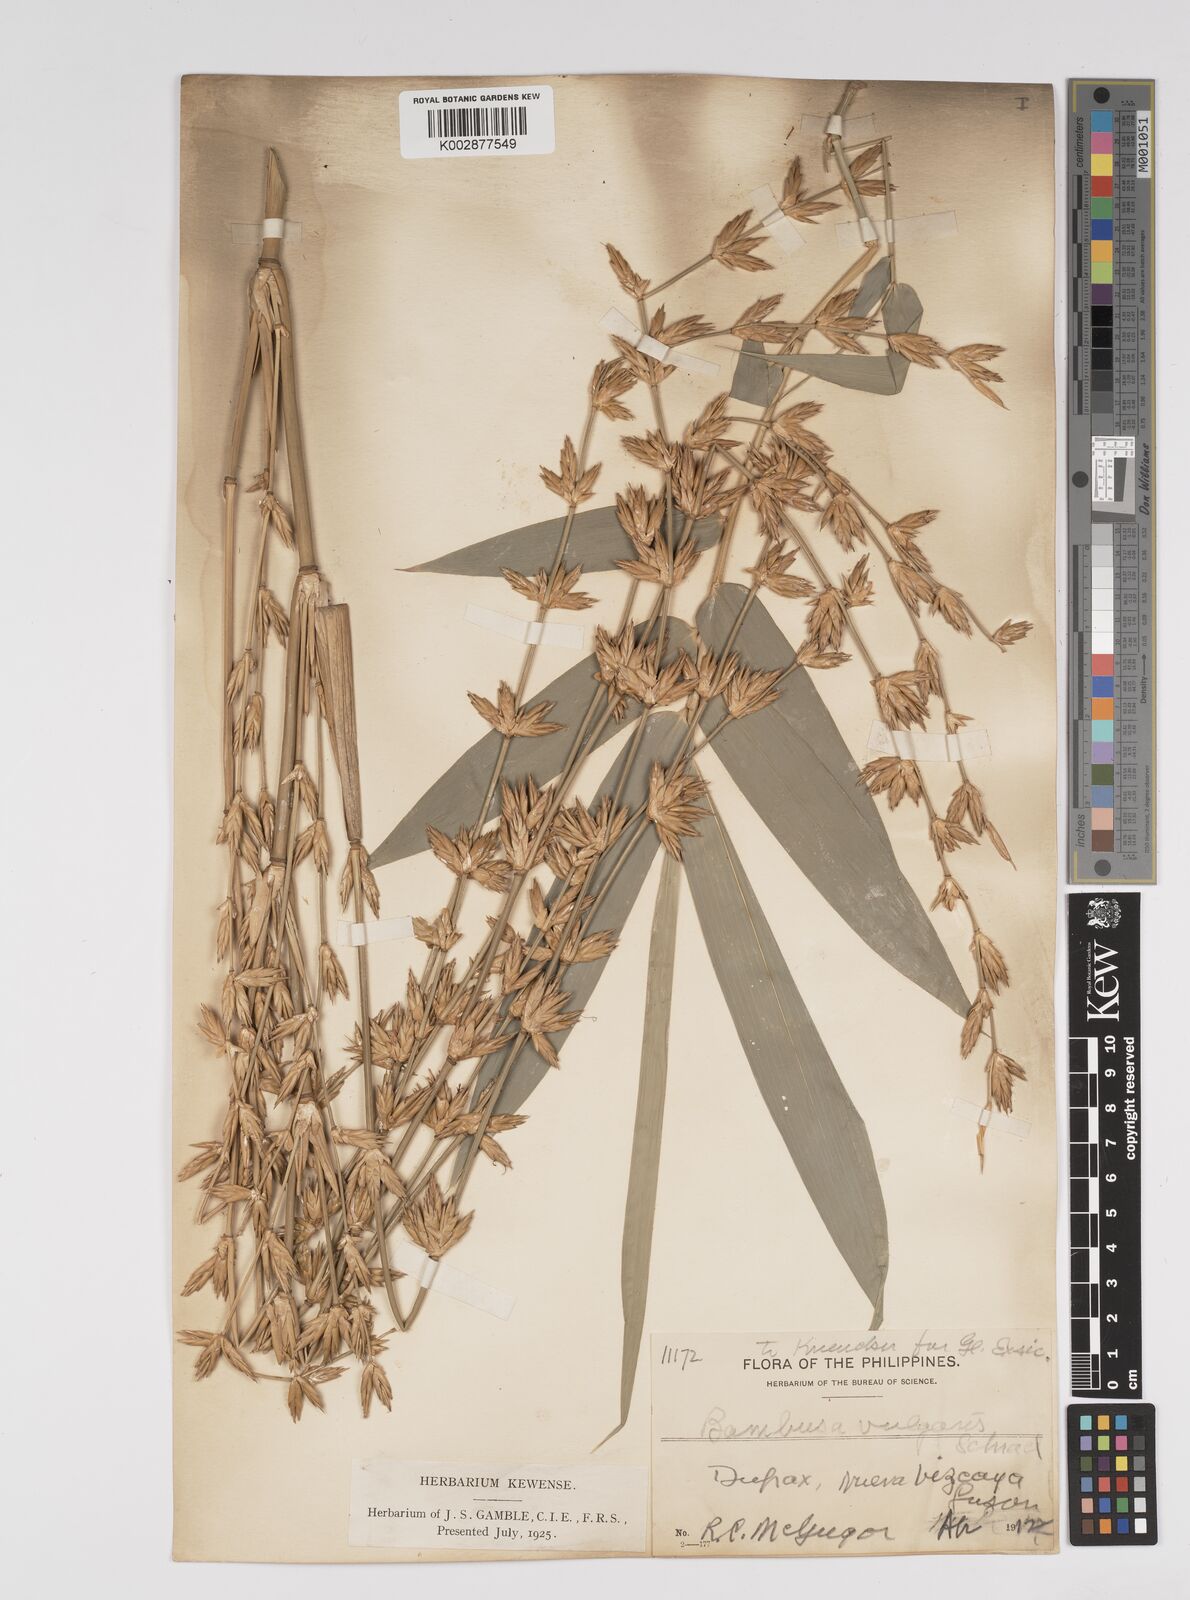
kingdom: Plantae
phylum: Tracheophyta
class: Liliopsida
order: Poales
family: Poaceae
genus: Bambusa
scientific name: Bambusa vulgaris
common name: Common bamboo
